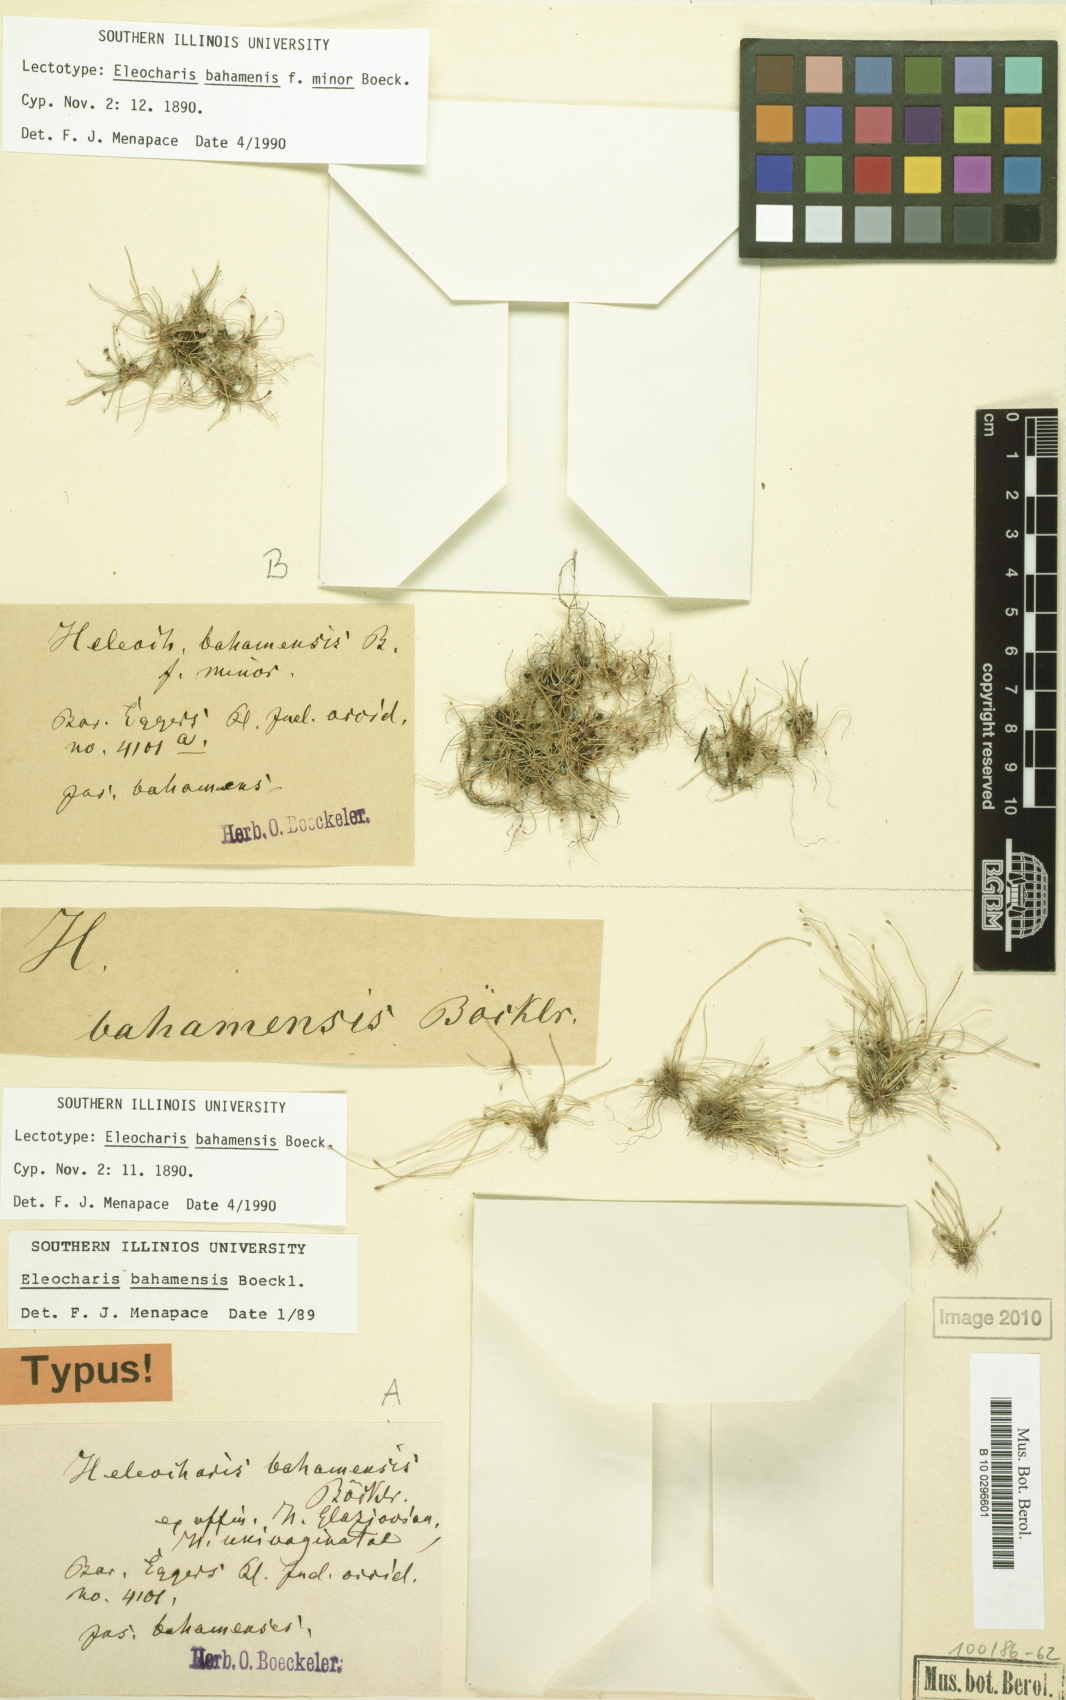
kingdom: Plantae
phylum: Tracheophyta
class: Liliopsida
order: Poales
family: Cyperaceae
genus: Eleocharis
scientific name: Eleocharis bahamensis
